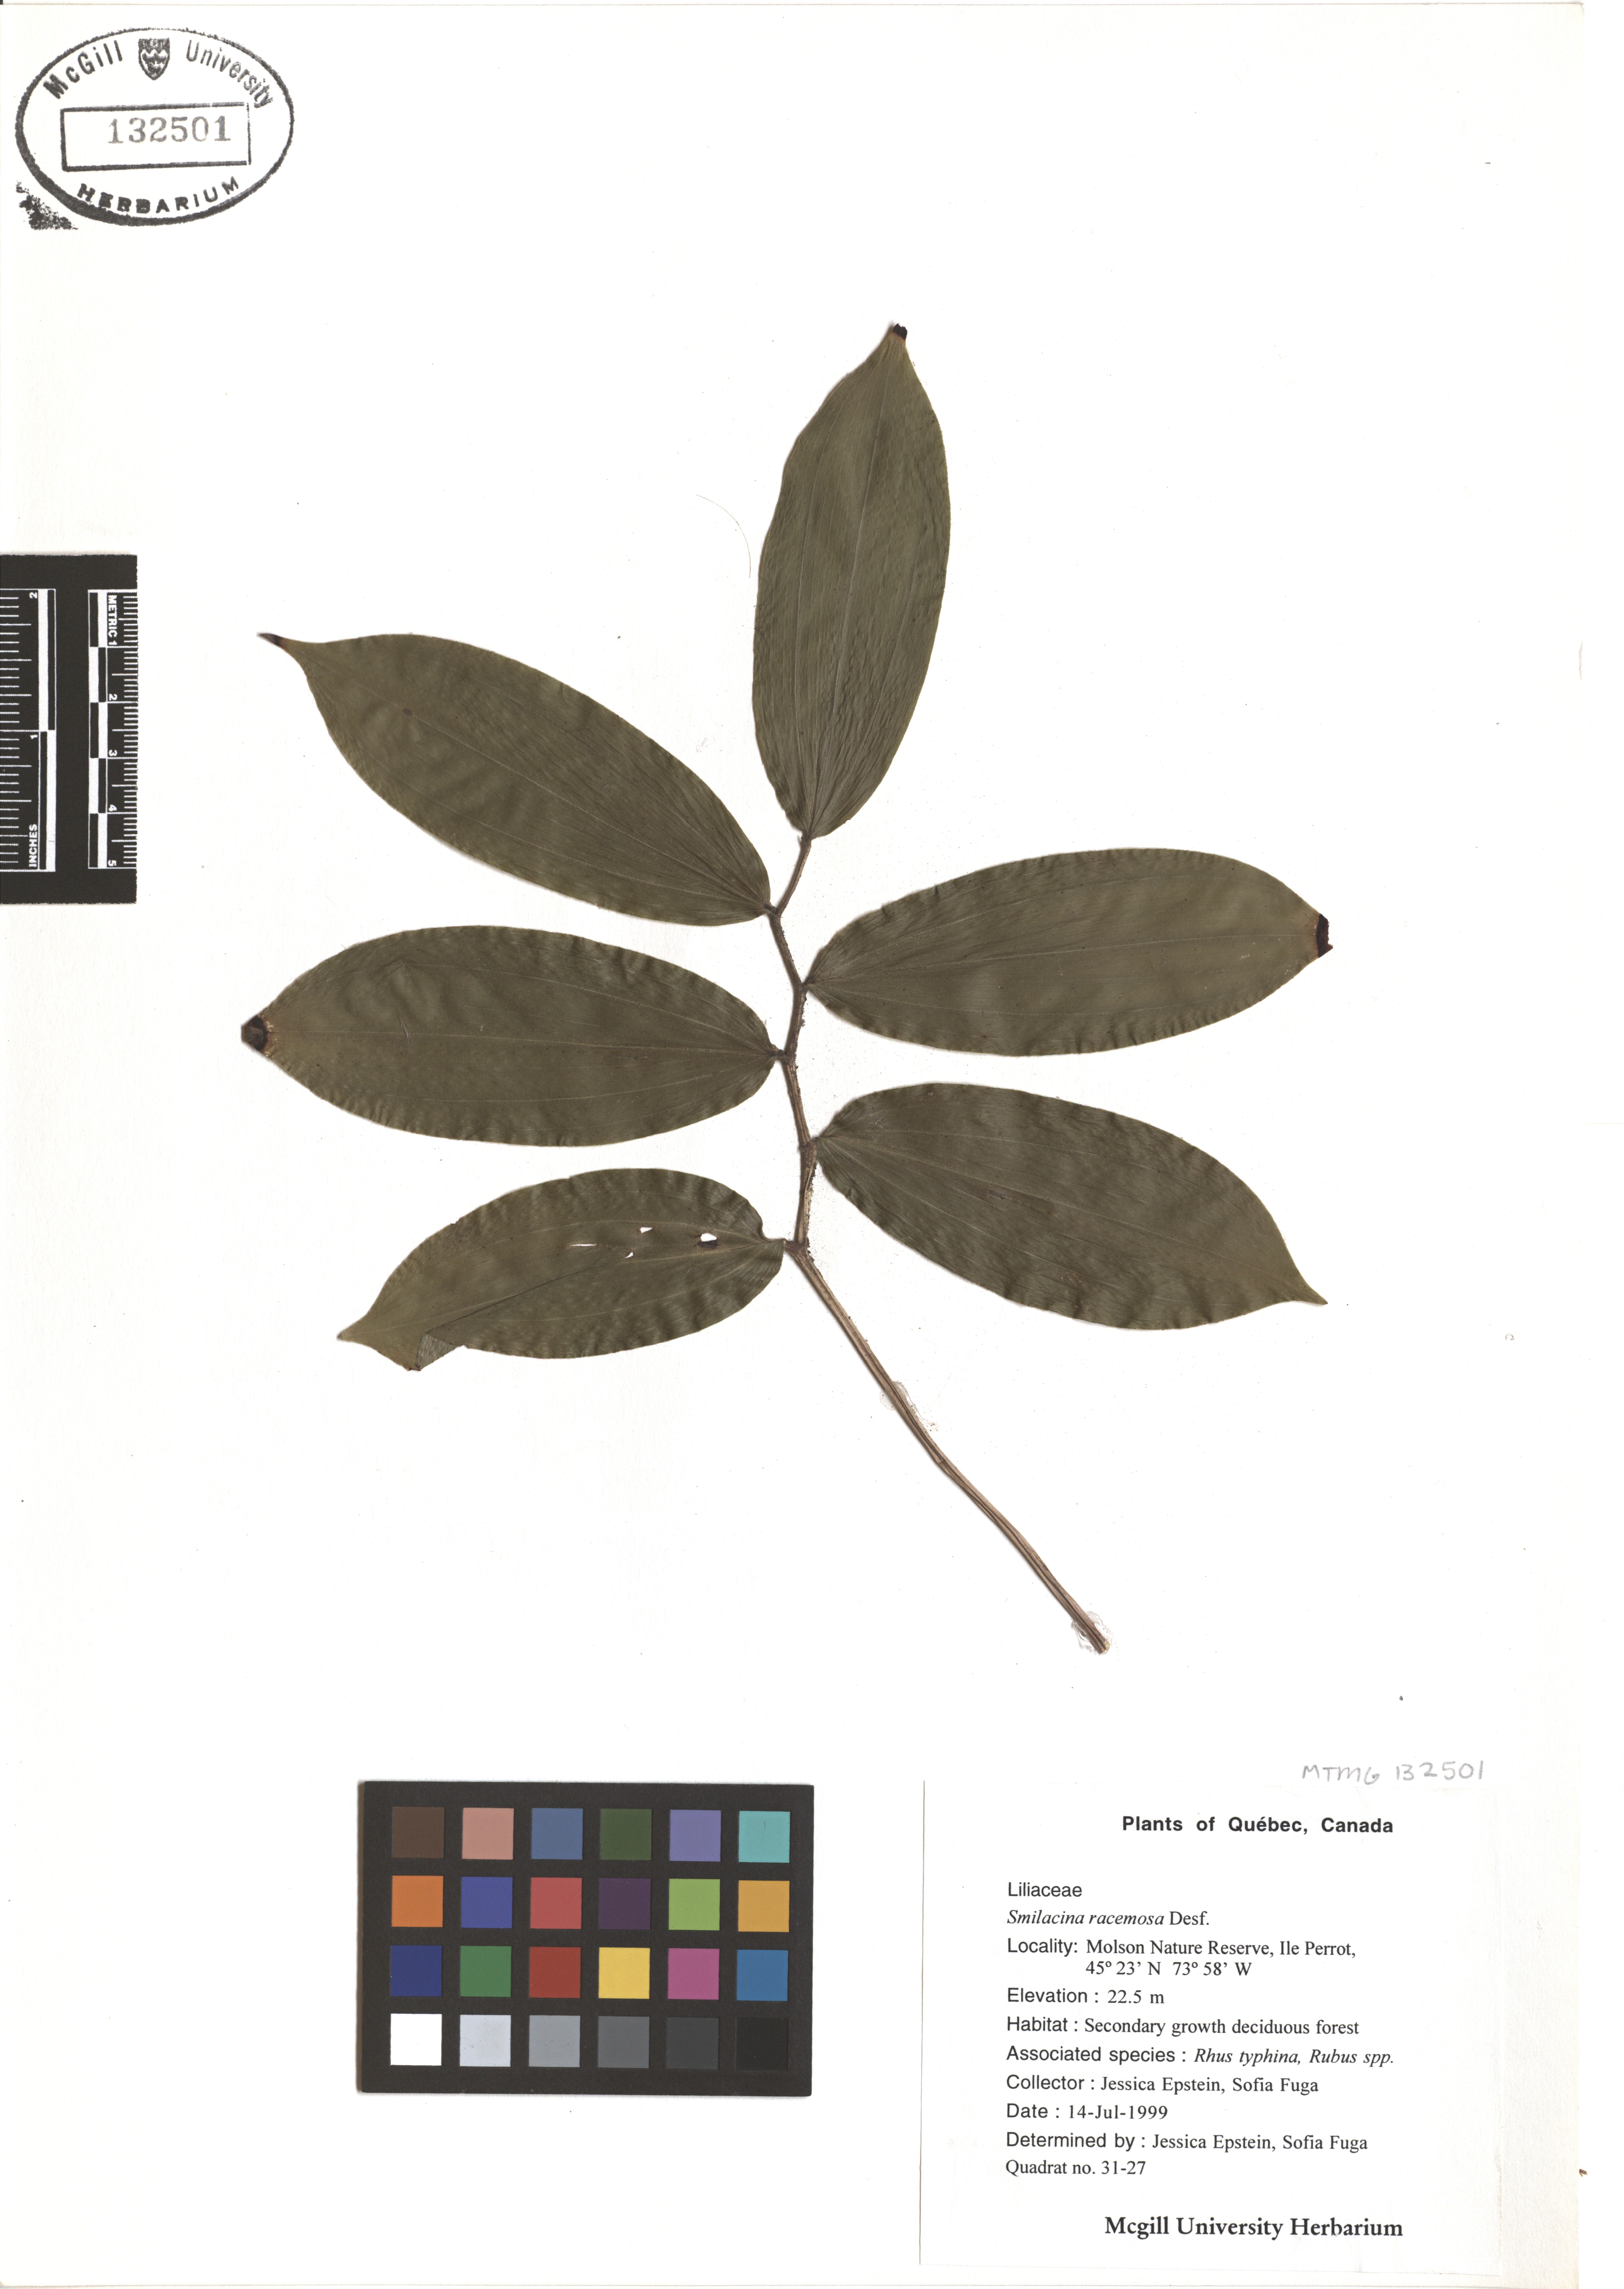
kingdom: Plantae
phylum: Tracheophyta
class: Liliopsida
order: Asparagales
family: Asparagaceae
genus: Maianthemum
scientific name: Maianthemum racemosum
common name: False spikenard
